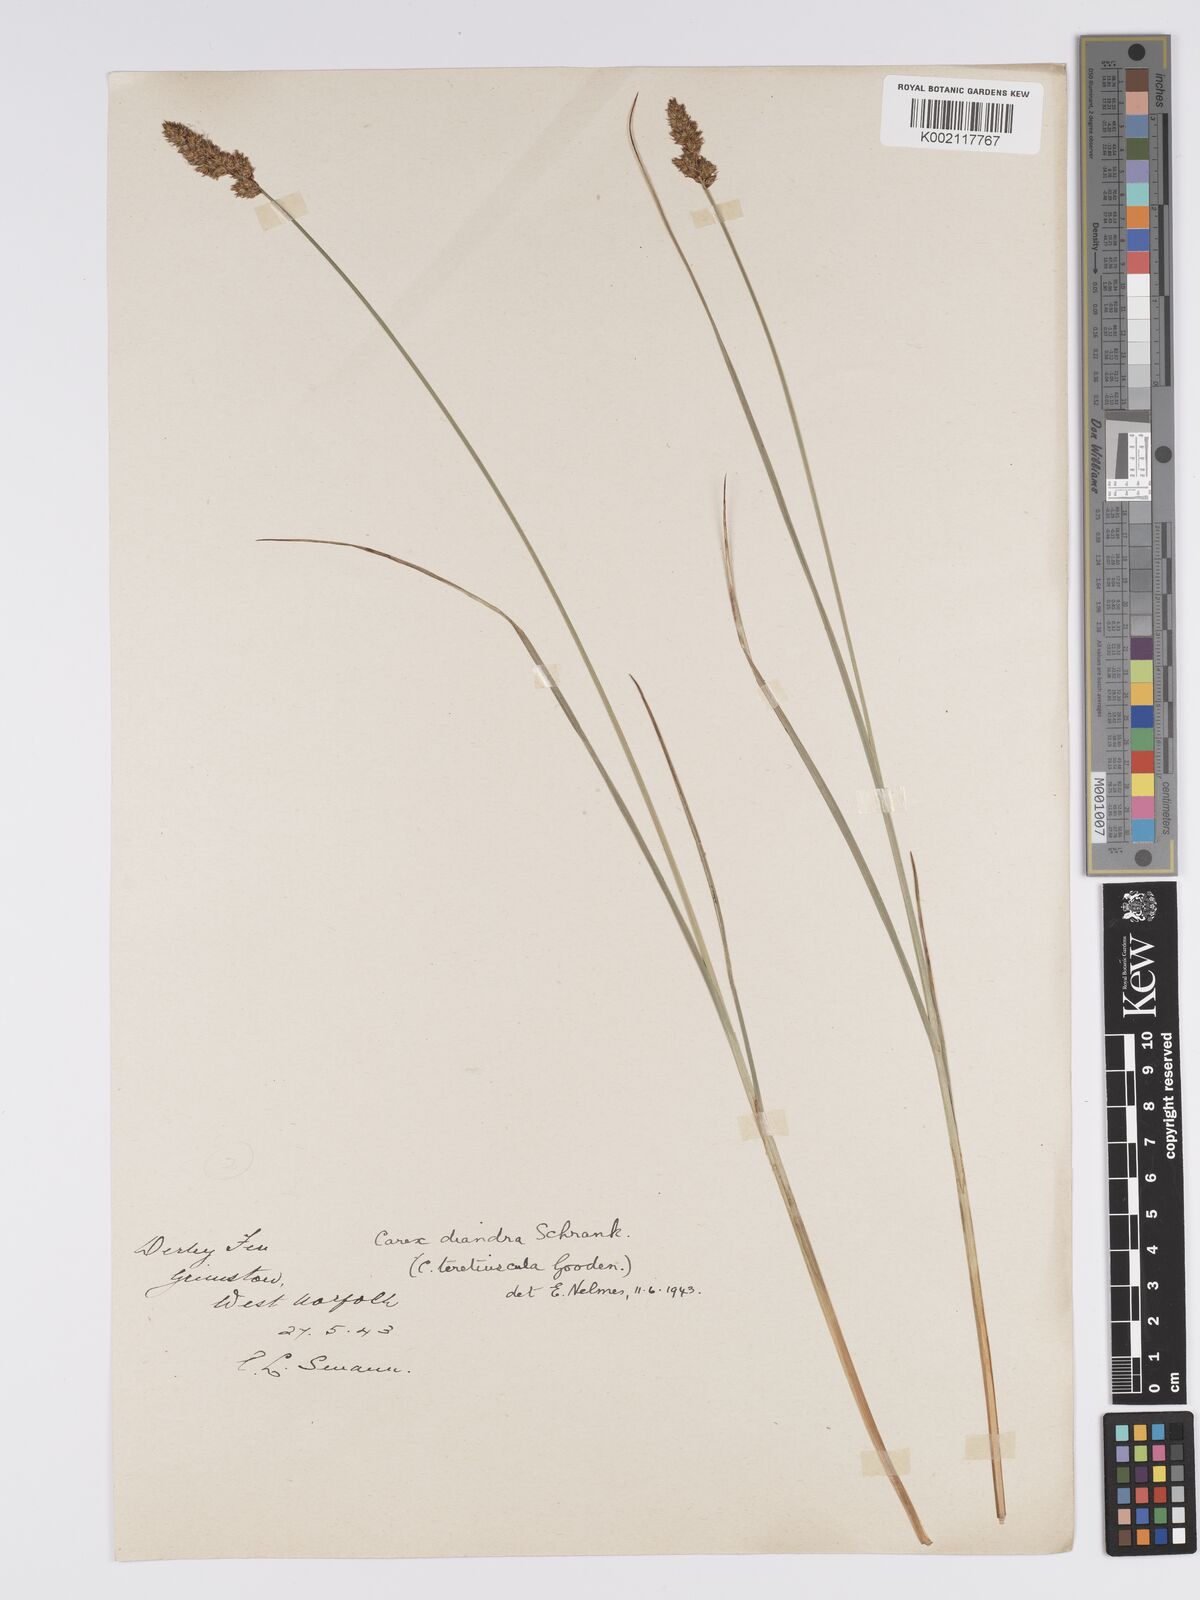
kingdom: Plantae
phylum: Tracheophyta
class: Liliopsida
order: Poales
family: Cyperaceae
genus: Carex
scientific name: Carex diandra
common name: Lesser tussock-sedge
